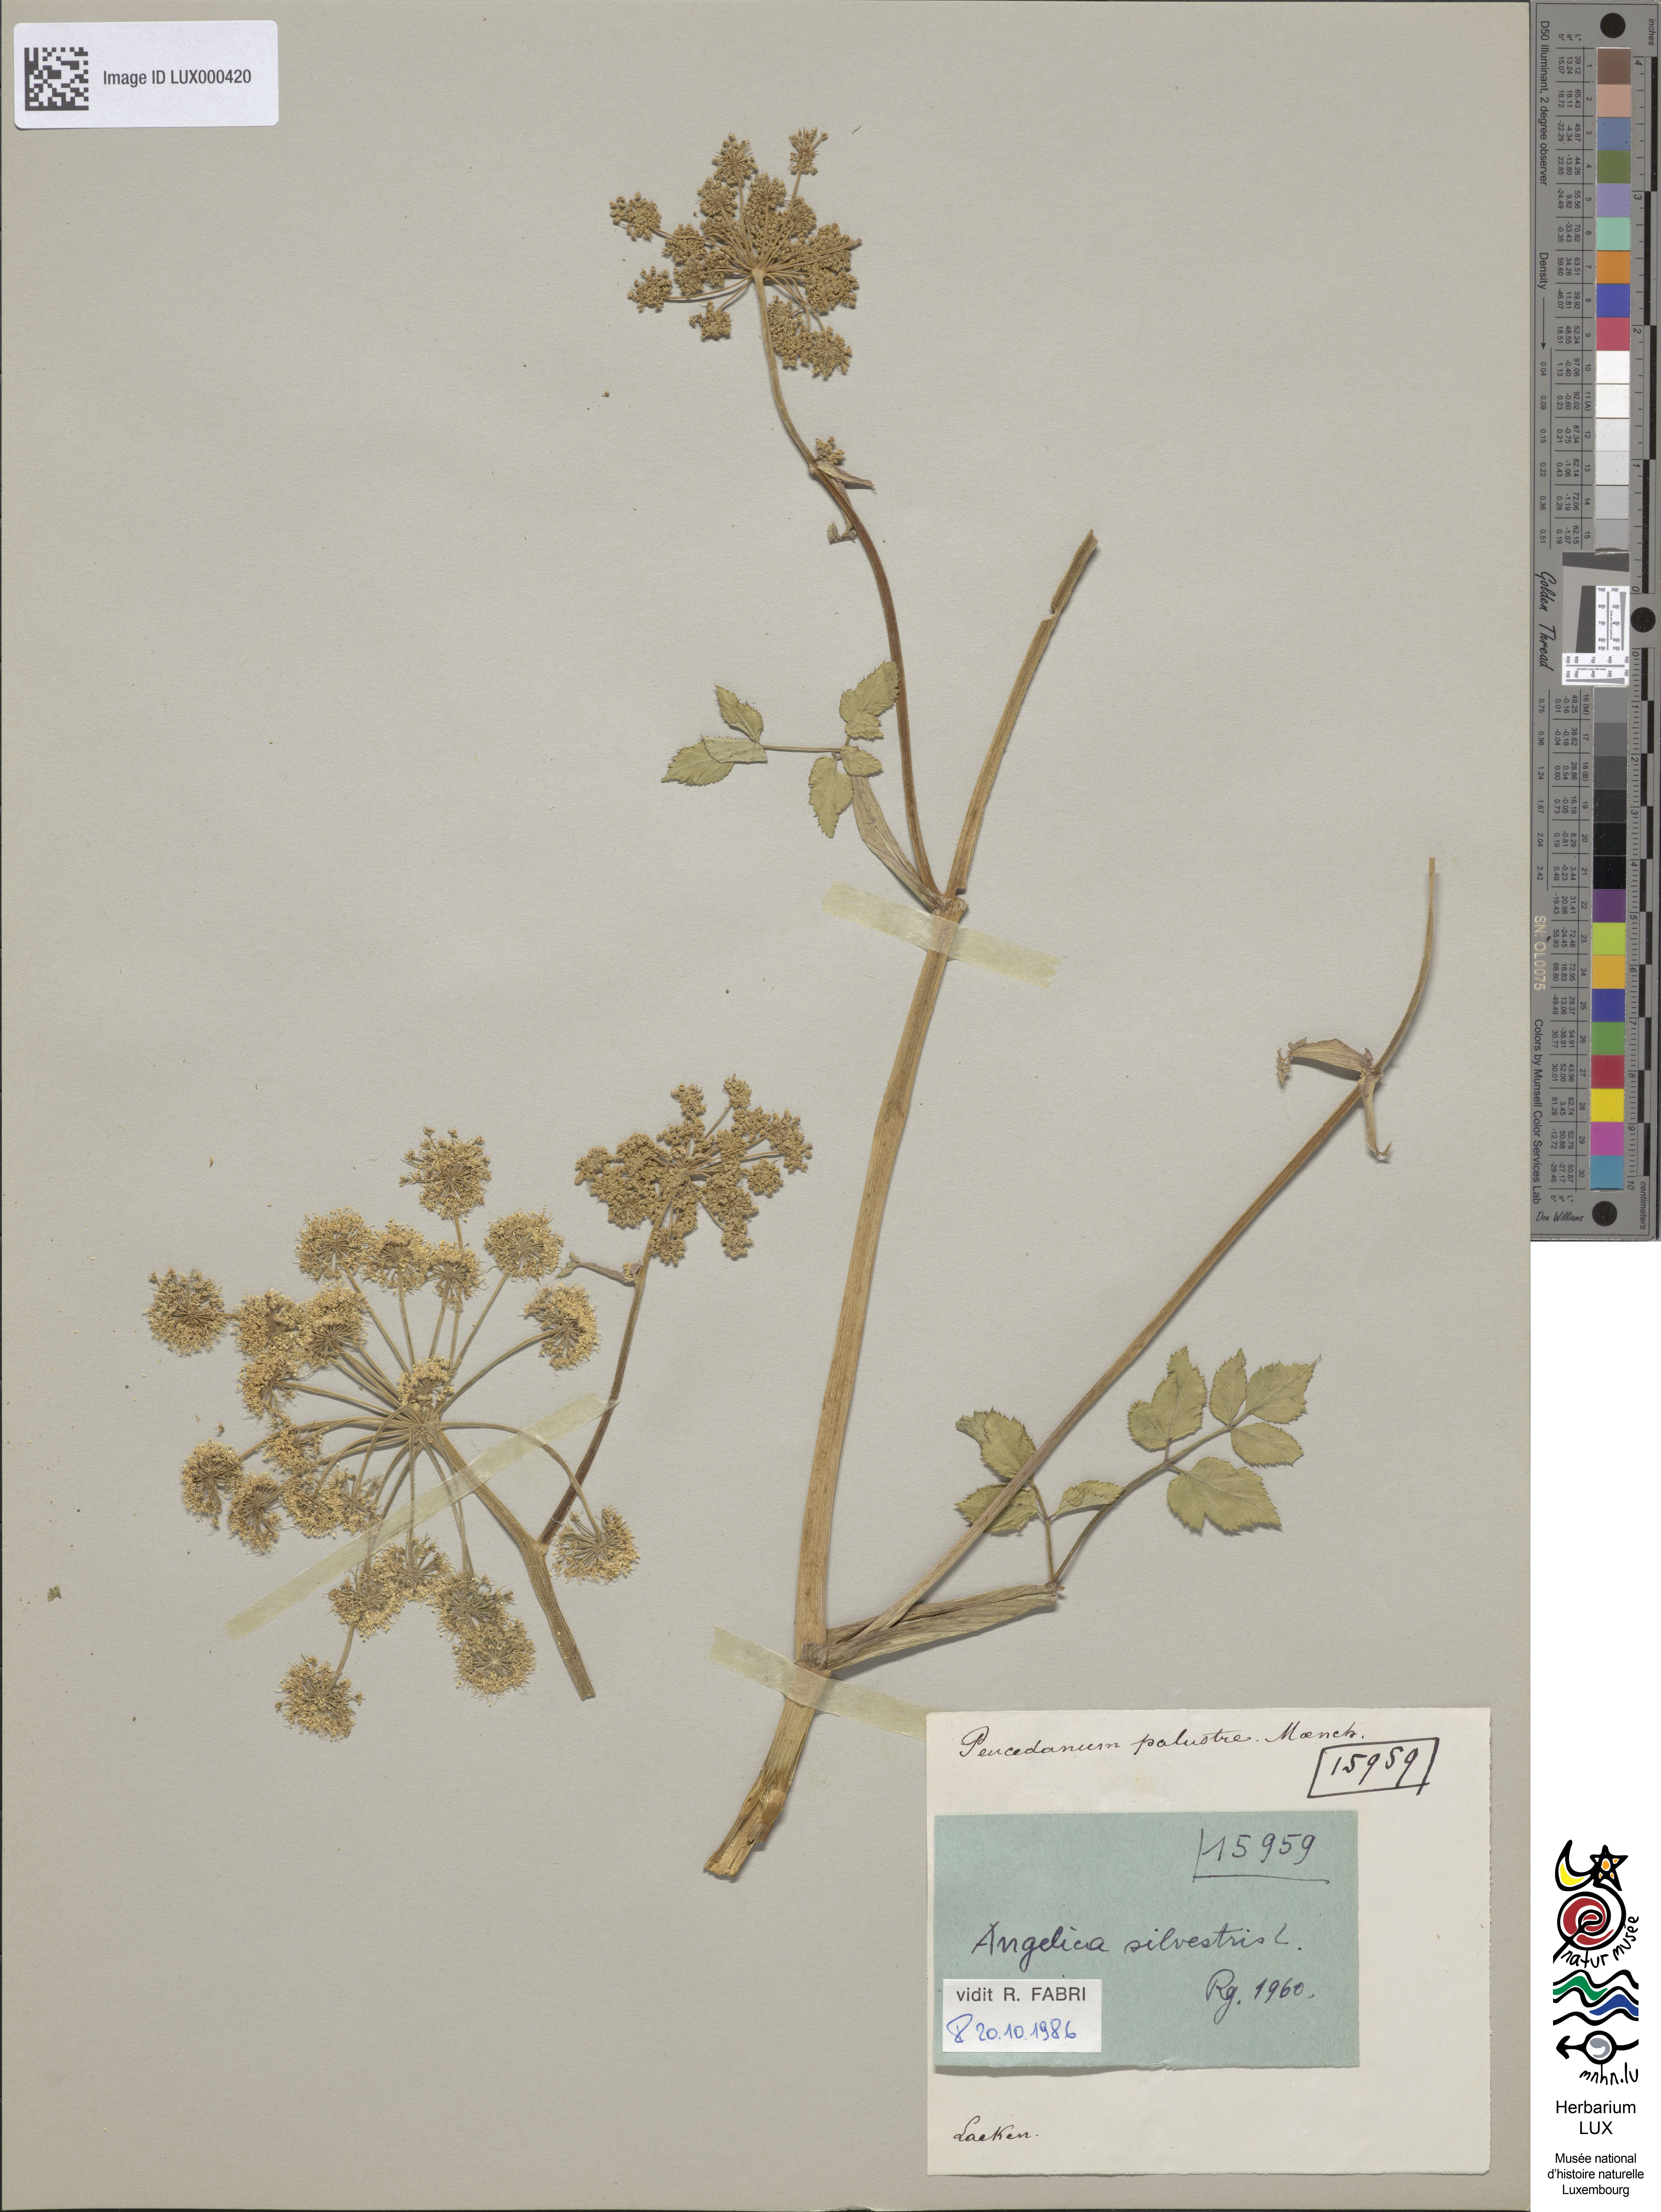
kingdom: Plantae
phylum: Tracheophyta
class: Magnoliopsida
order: Apiales
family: Apiaceae
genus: Thysselinum
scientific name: Thysselinum palustre
